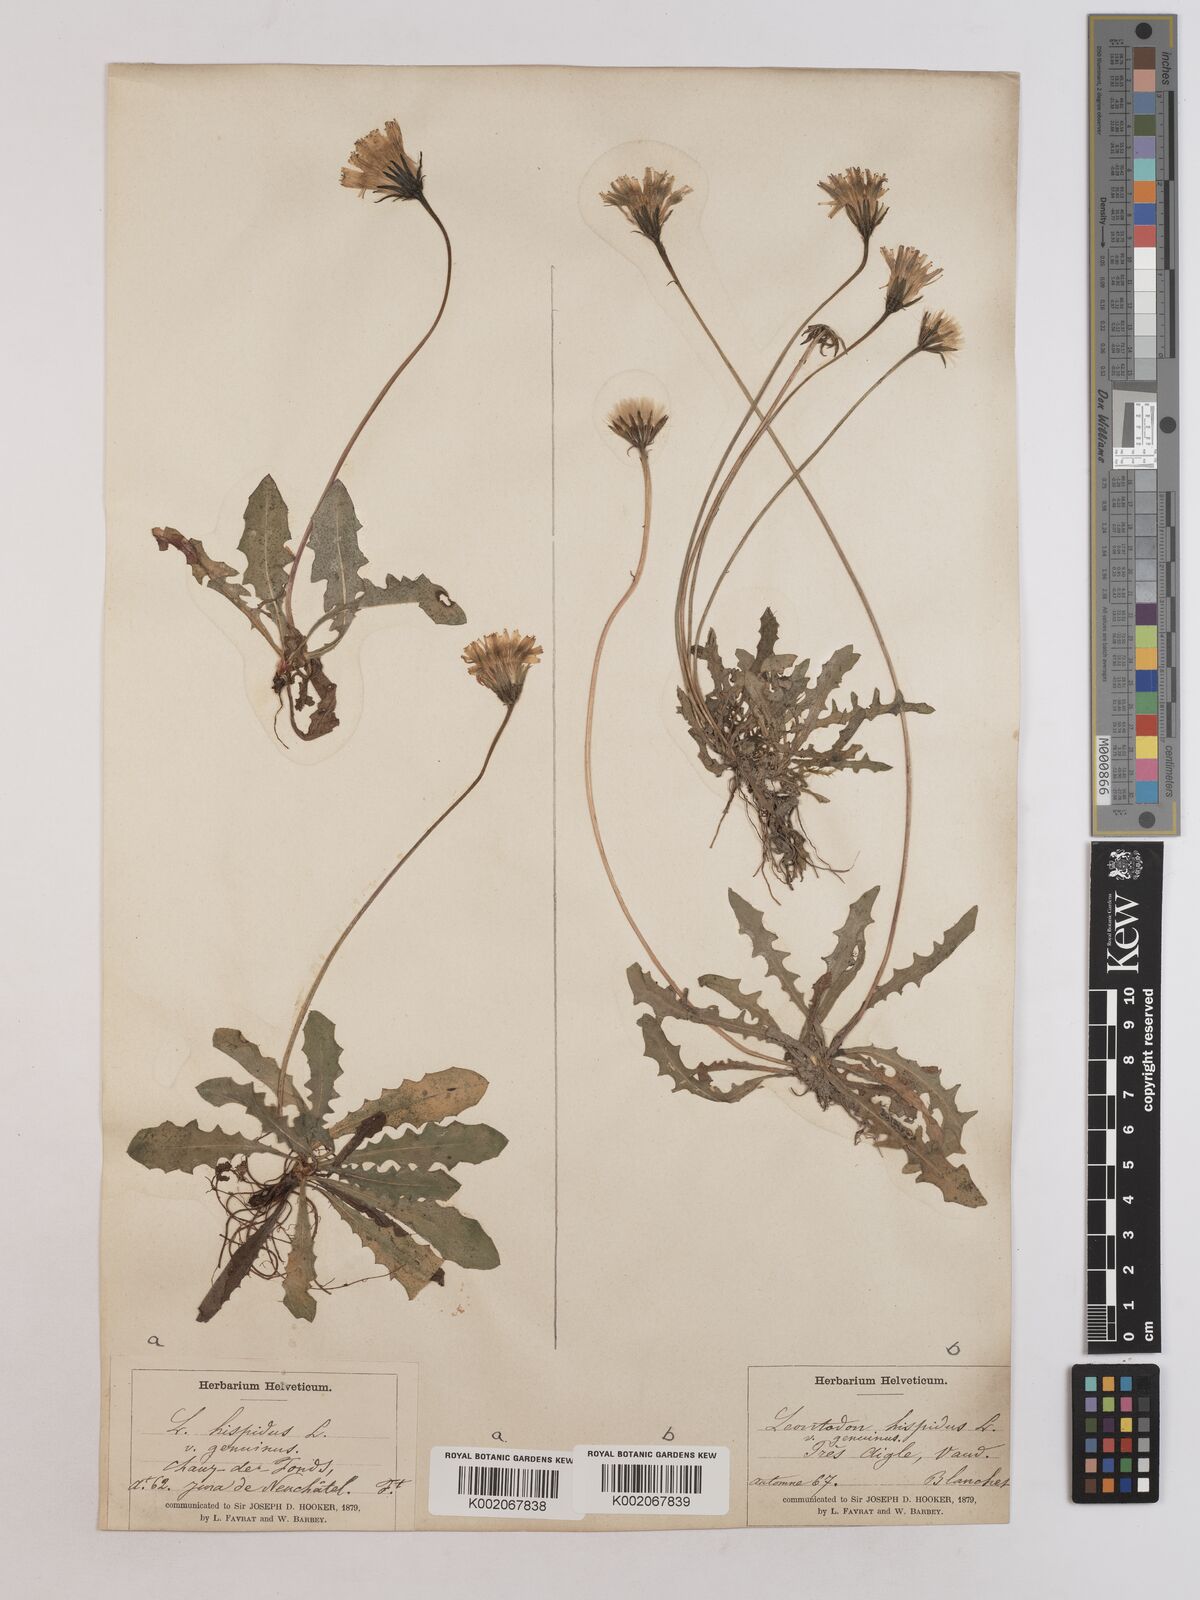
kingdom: Plantae
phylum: Tracheophyta
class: Magnoliopsida
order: Asterales
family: Asteraceae
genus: Leontodon
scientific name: Leontodon
